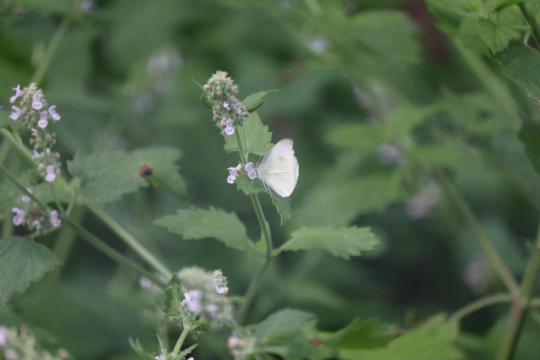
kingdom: Animalia
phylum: Arthropoda
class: Insecta
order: Lepidoptera
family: Pieridae
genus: Pieris
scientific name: Pieris rapae
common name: Cabbage White
